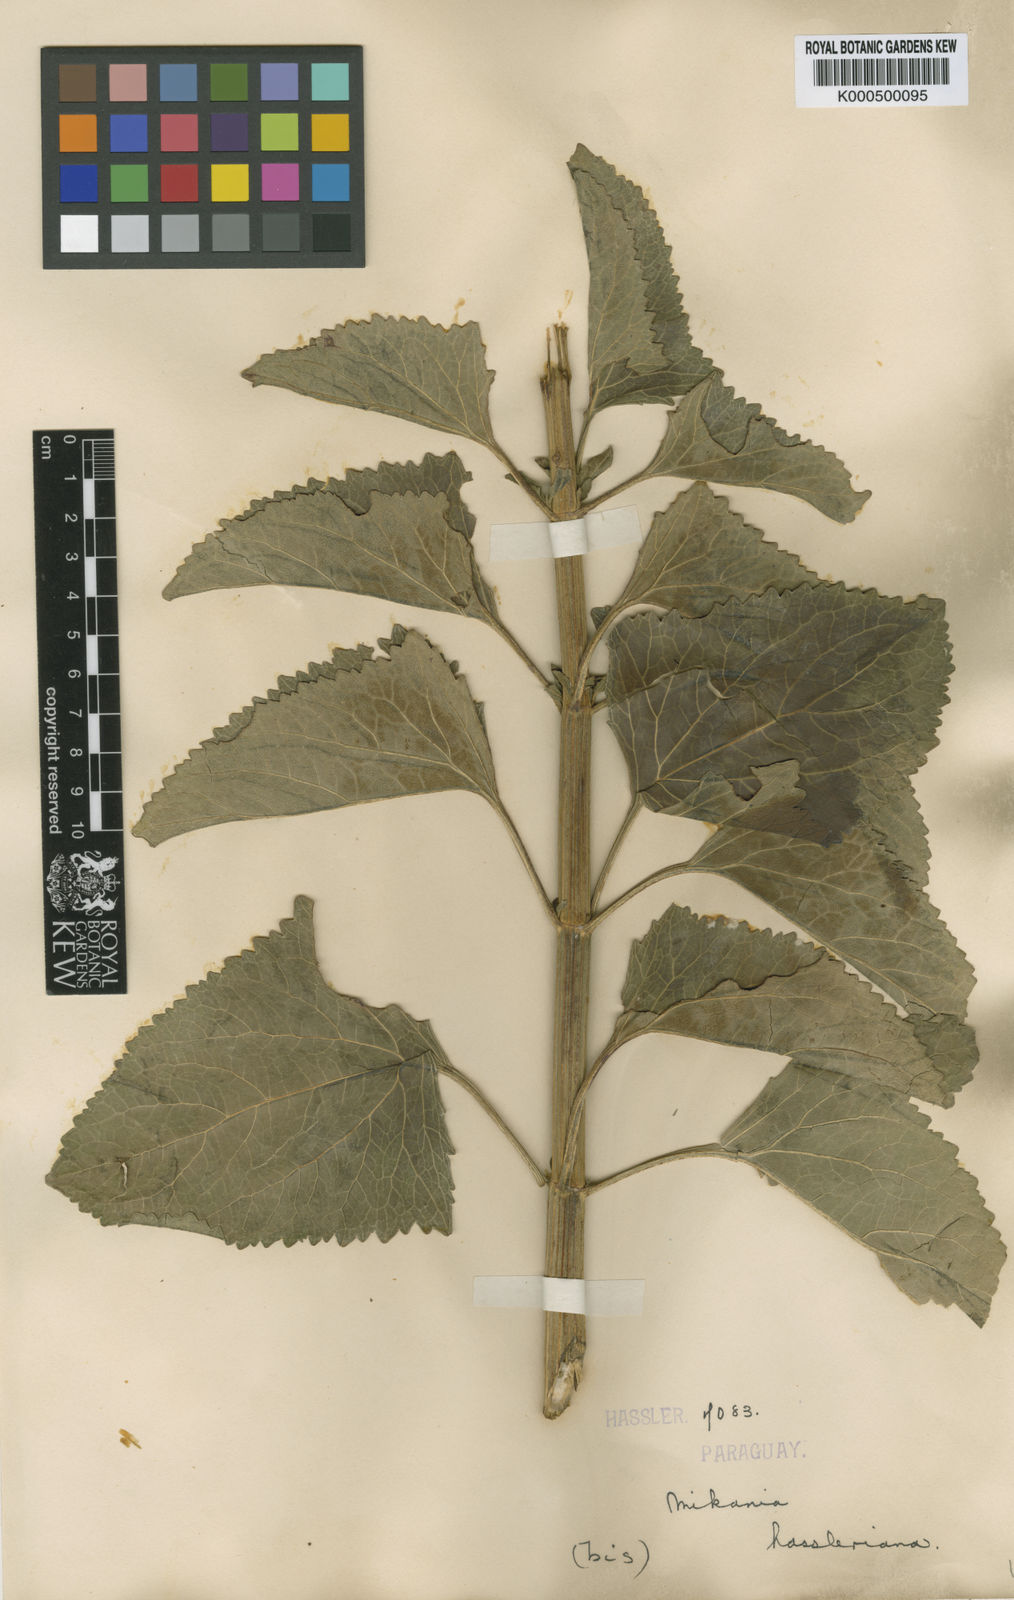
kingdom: Plantae
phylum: Tracheophyta
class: Magnoliopsida
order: Asterales
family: Asteraceae
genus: Mikania
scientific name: Mikania fulva
